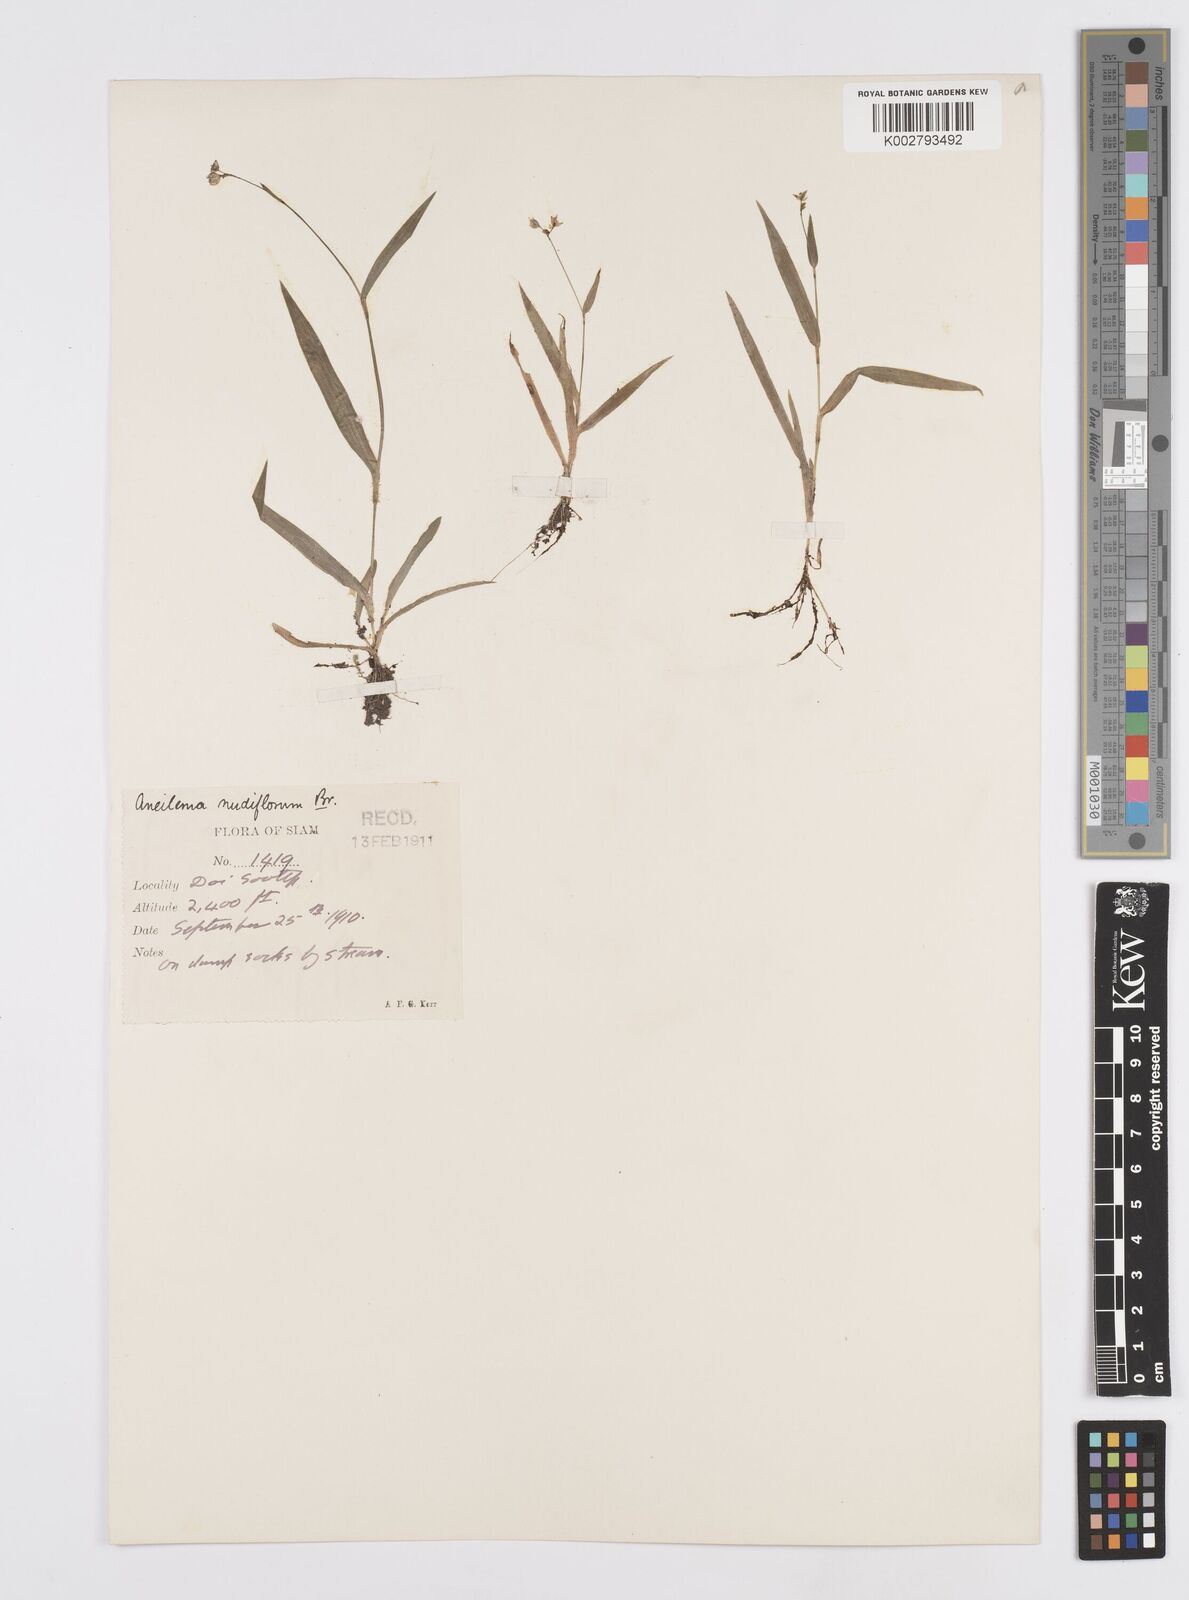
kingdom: Plantae
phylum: Tracheophyta
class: Liliopsida
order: Commelinales
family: Commelinaceae
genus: Murdannia
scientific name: Murdannia nudiflora
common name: Nakedstem dewflower
